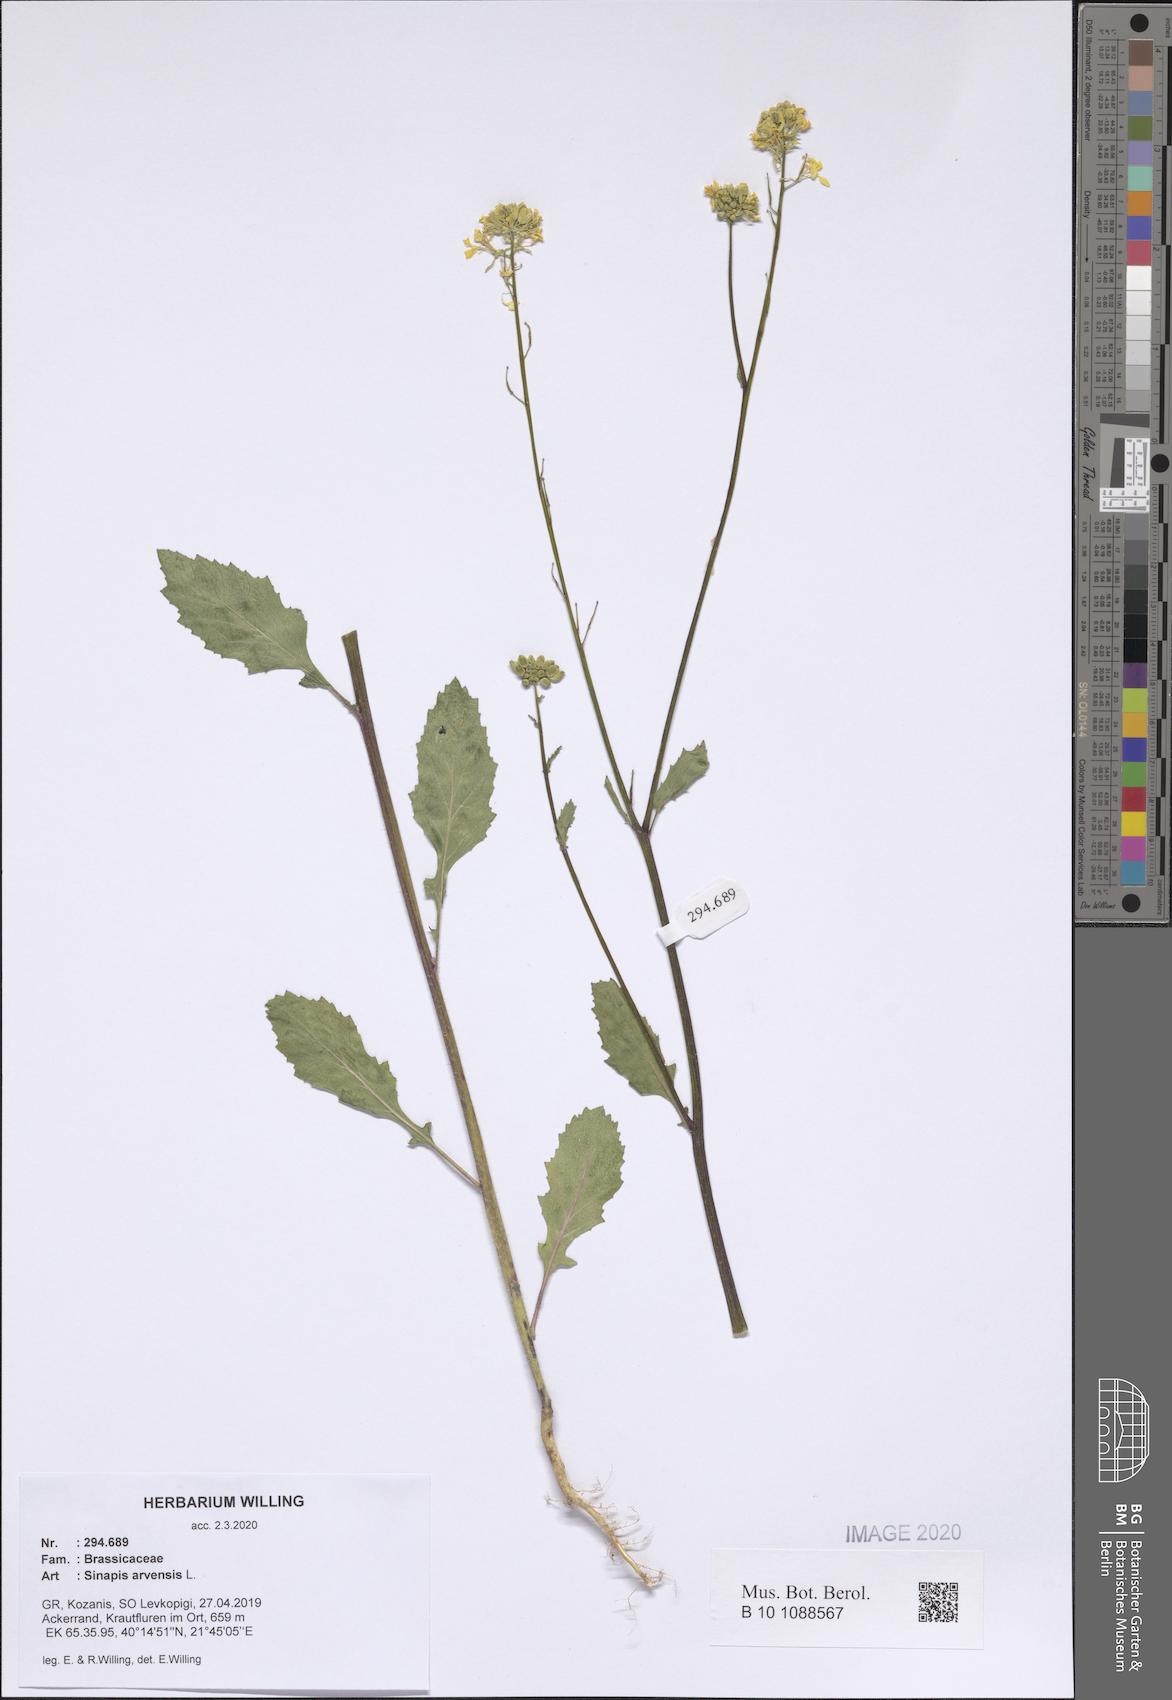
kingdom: Plantae
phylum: Tracheophyta
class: Magnoliopsida
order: Brassicales
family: Brassicaceae
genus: Sinapis
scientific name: Sinapis arvensis
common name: Charlock
